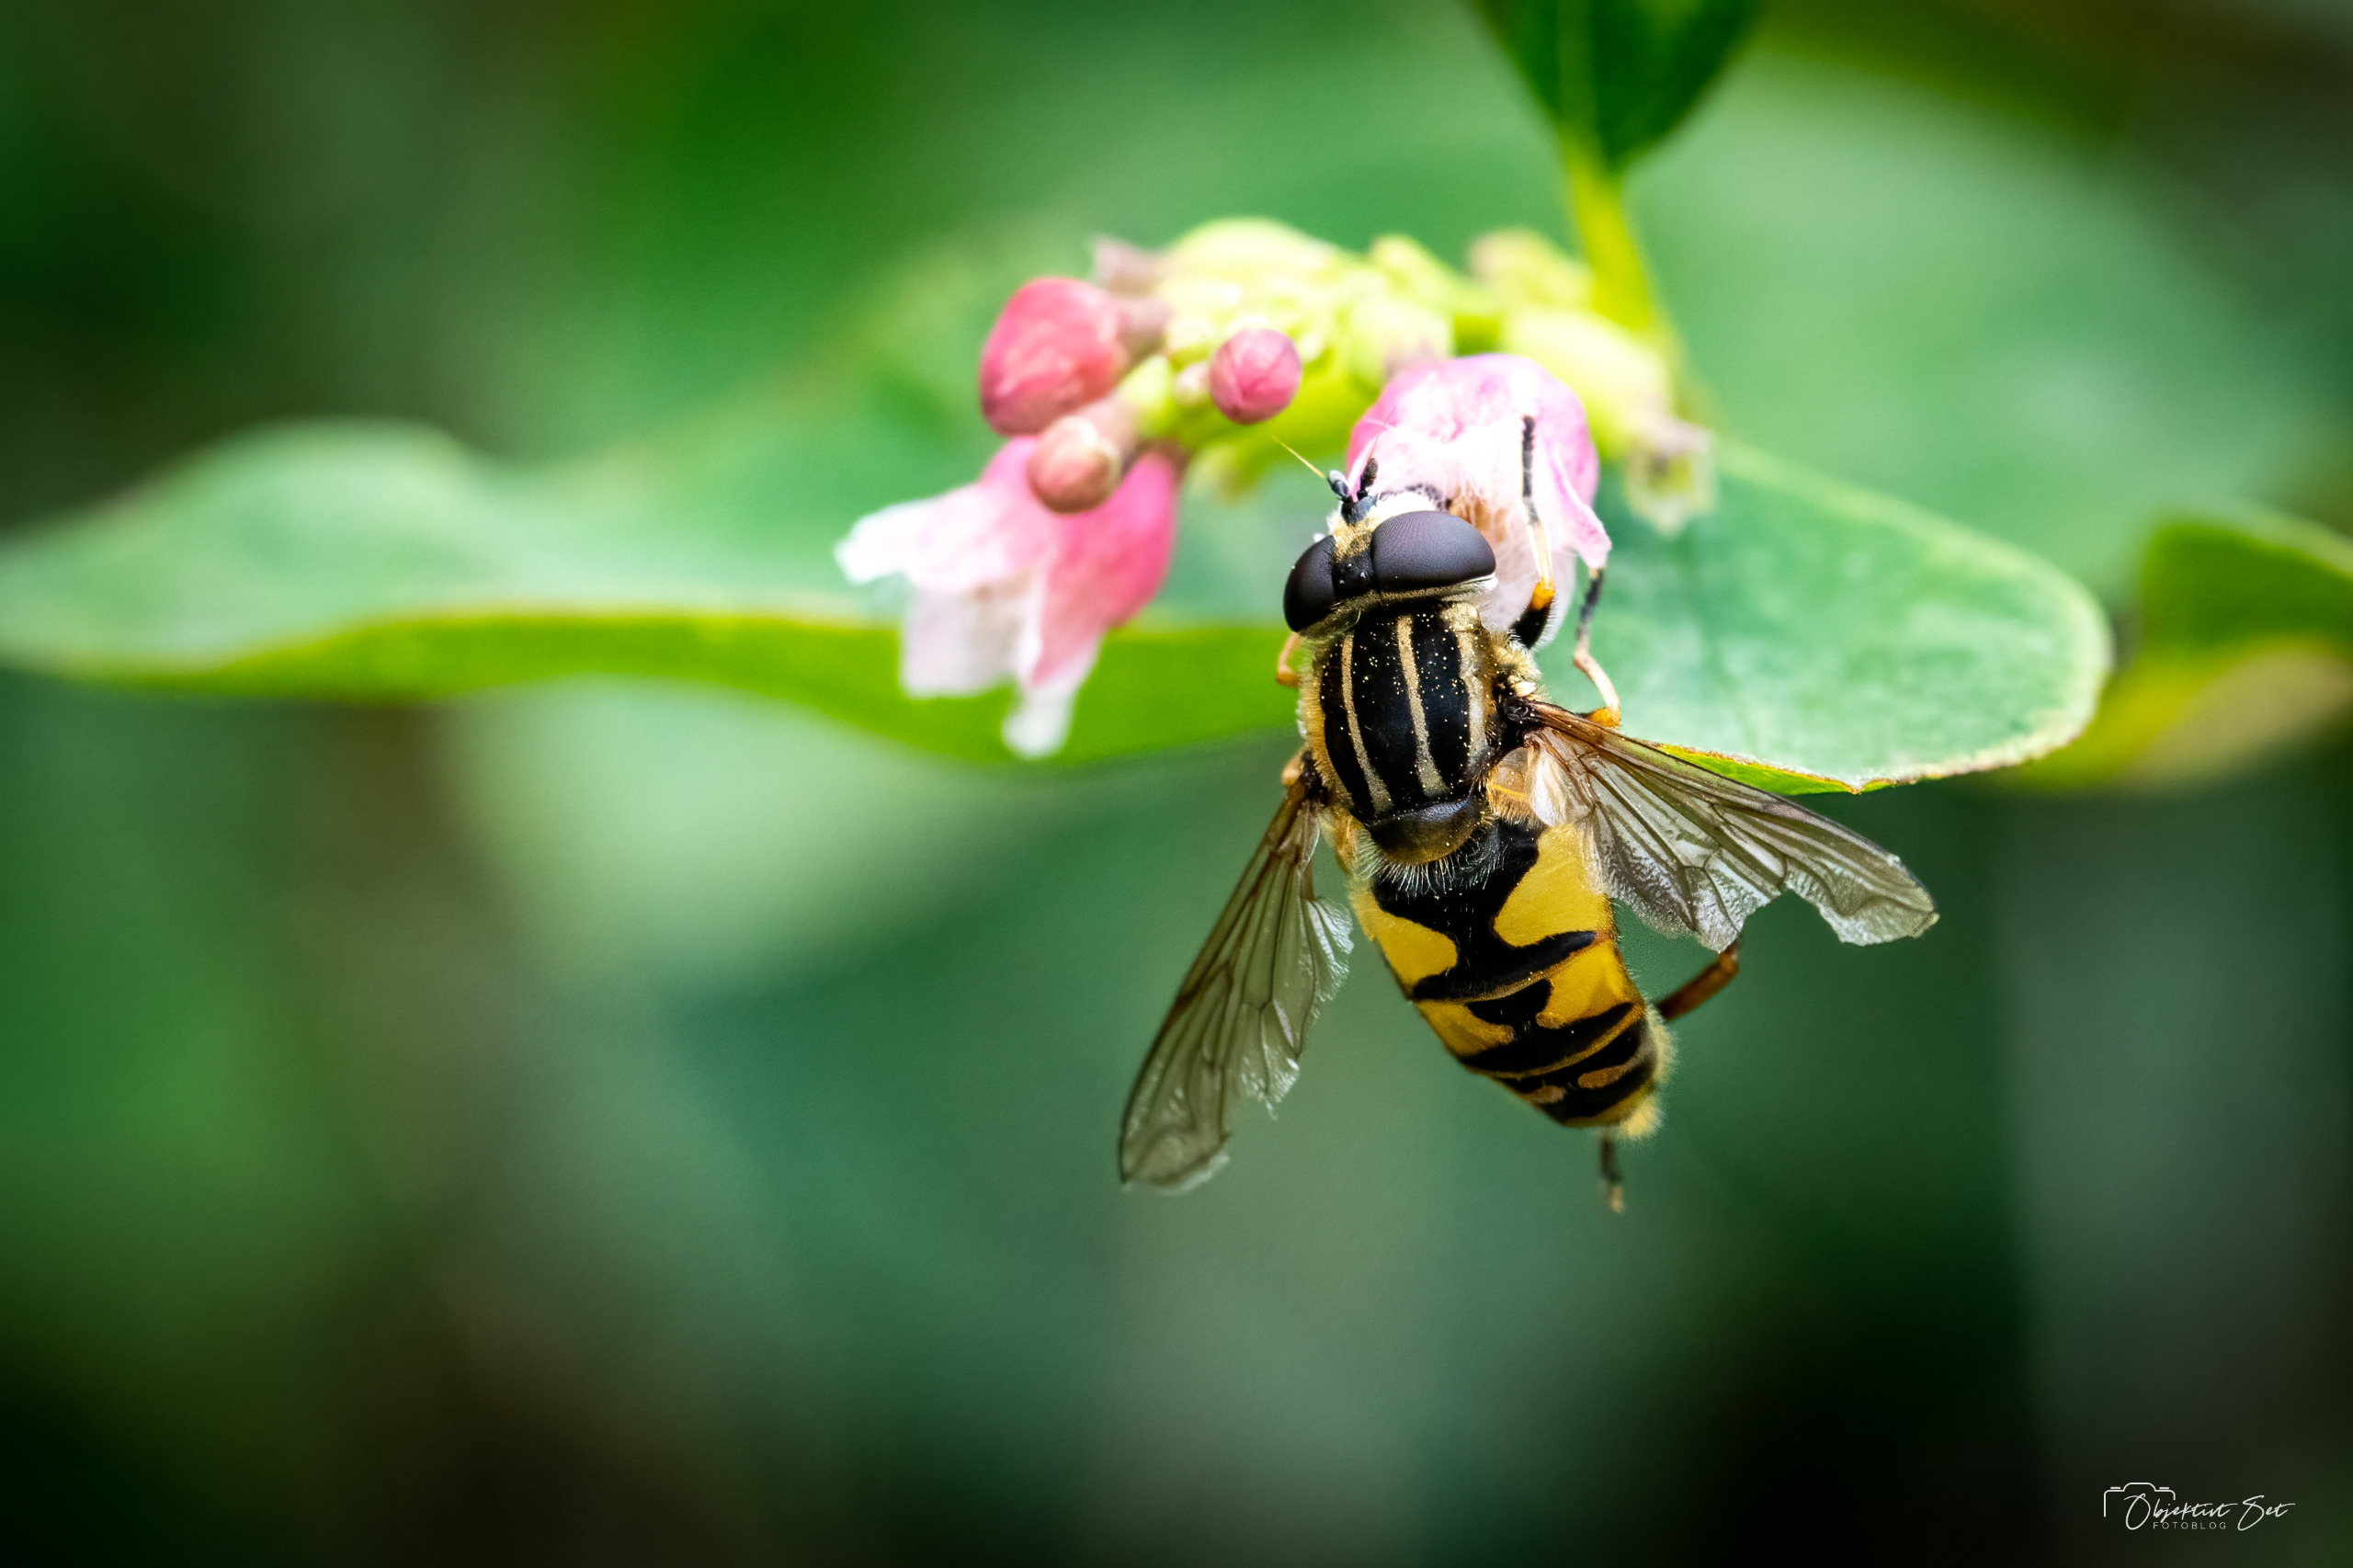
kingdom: Animalia
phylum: Arthropoda
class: Insecta
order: Diptera
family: Syrphidae
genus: Helophilus
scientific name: Helophilus pendulus
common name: Almindelig sumpsvirreflue
